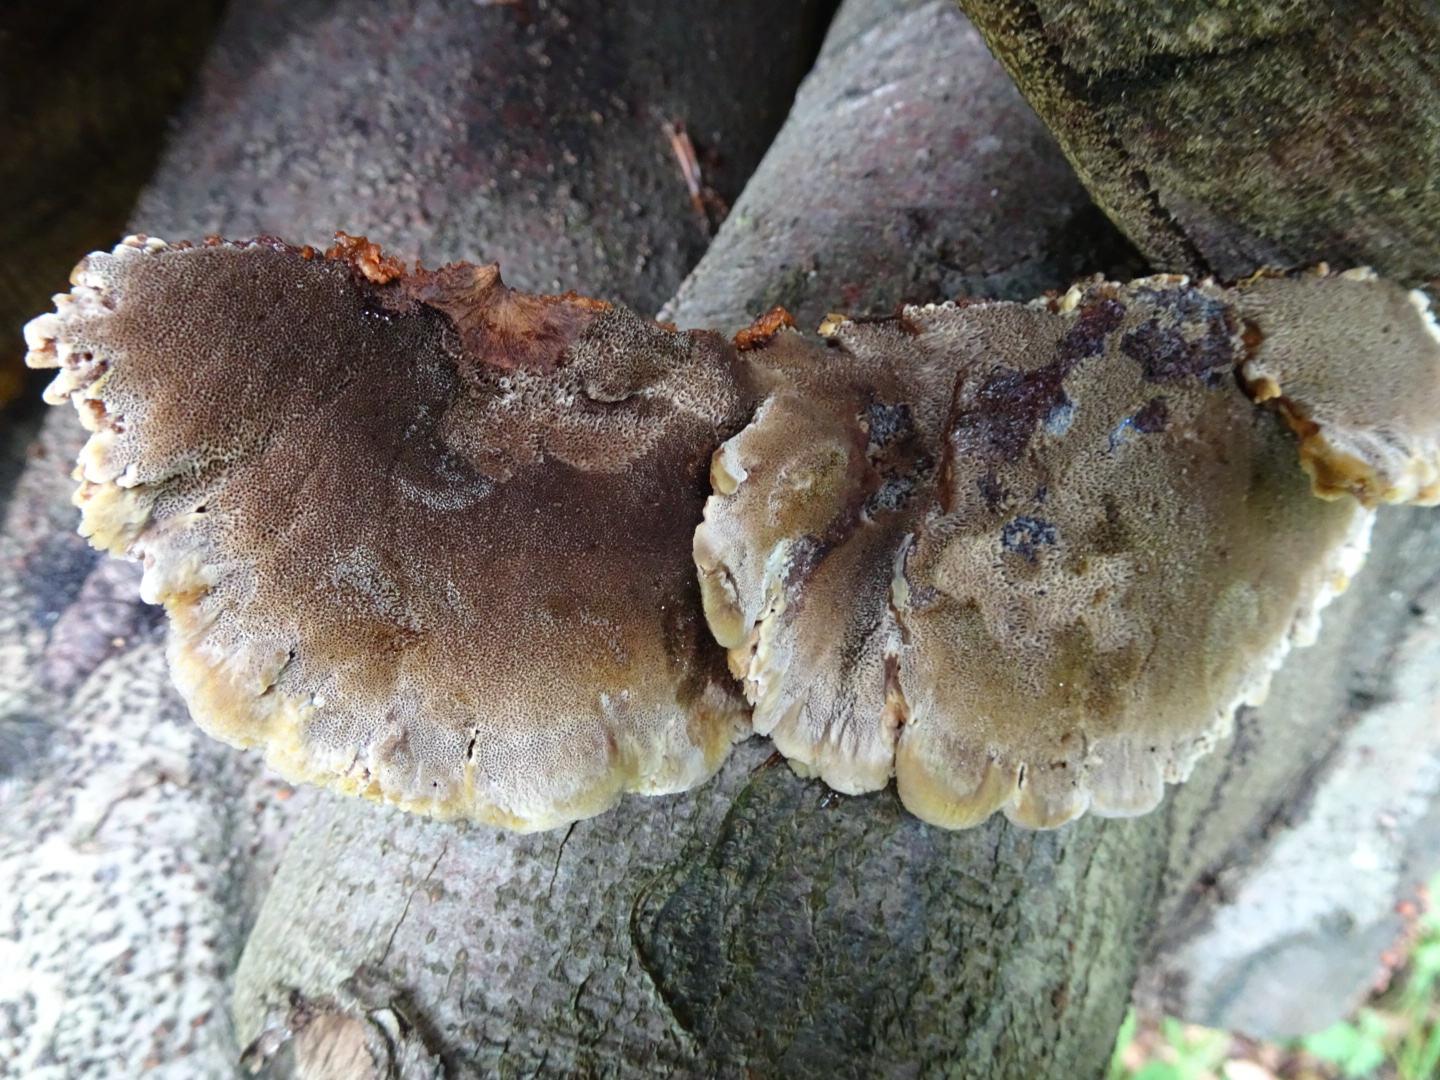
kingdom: Fungi
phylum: Basidiomycota
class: Agaricomycetes
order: Hymenochaetales
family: Hymenochaetaceae
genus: Inonotus
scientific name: Inonotus cuticularis
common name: kroghåret spejlporesvamp
